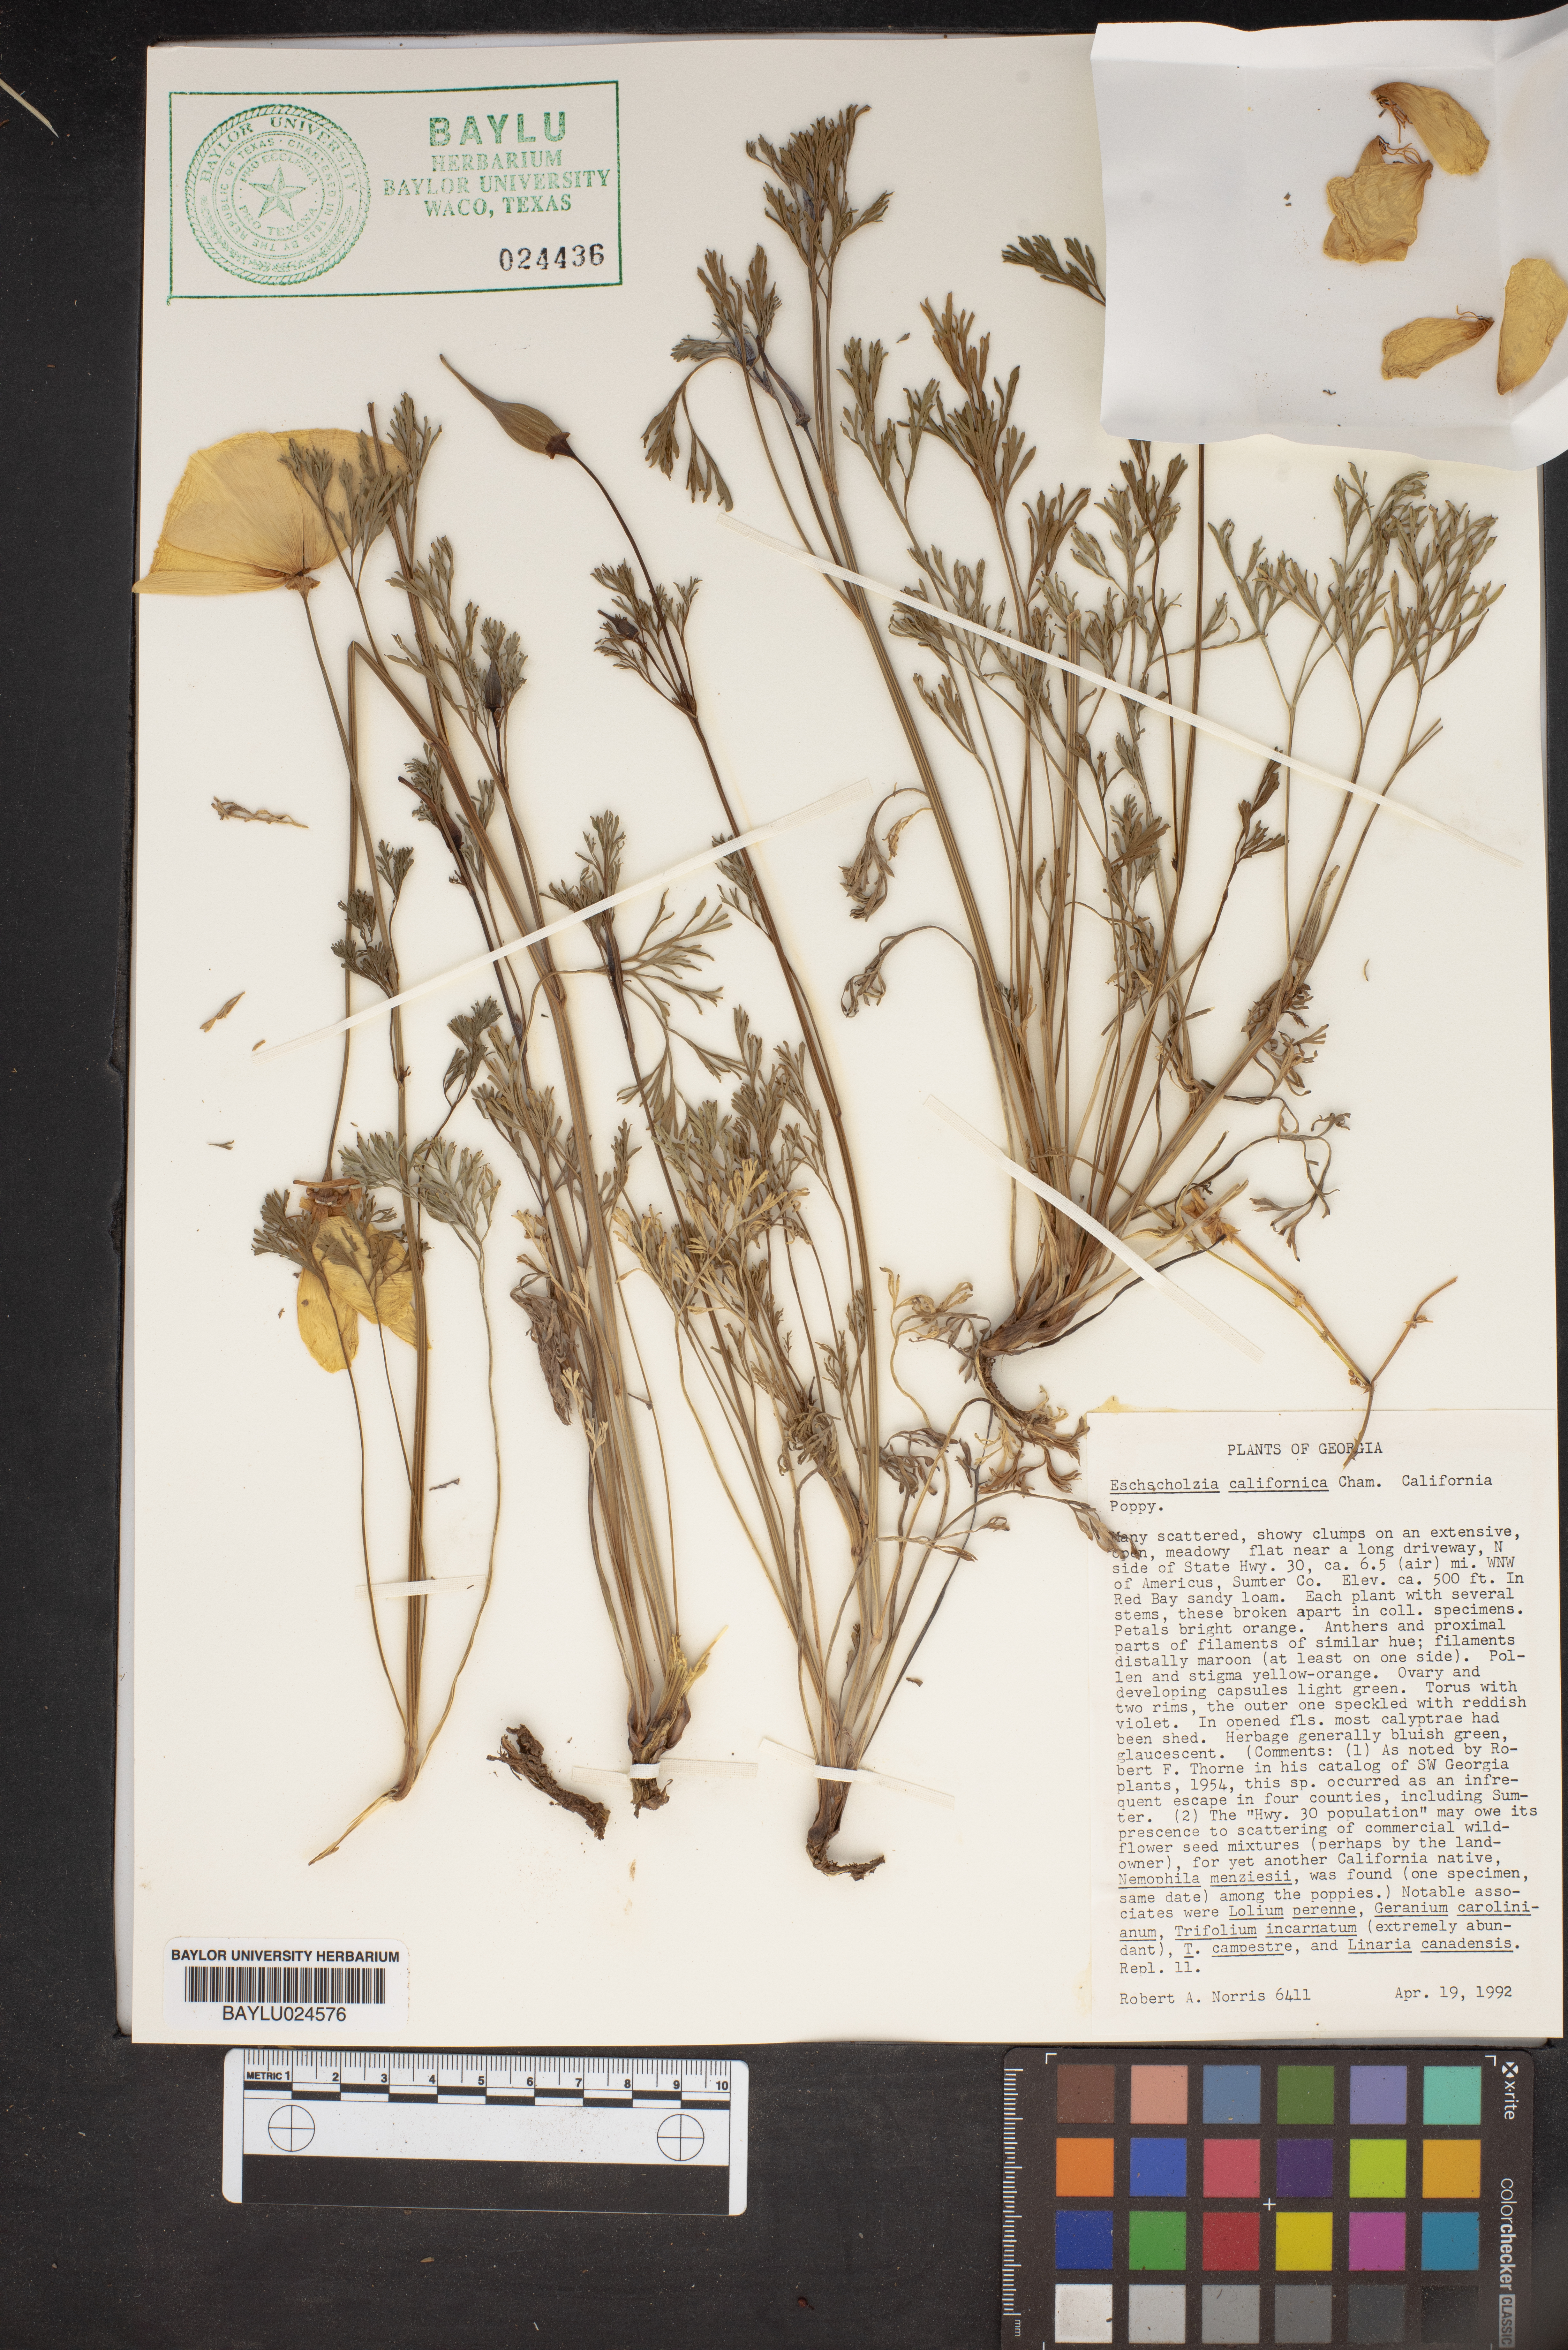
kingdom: Plantae
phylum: Tracheophyta
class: Magnoliopsida
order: Ranunculales
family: Papaveraceae
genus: Eschscholzia
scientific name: Eschscholzia californica
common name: California poppy
